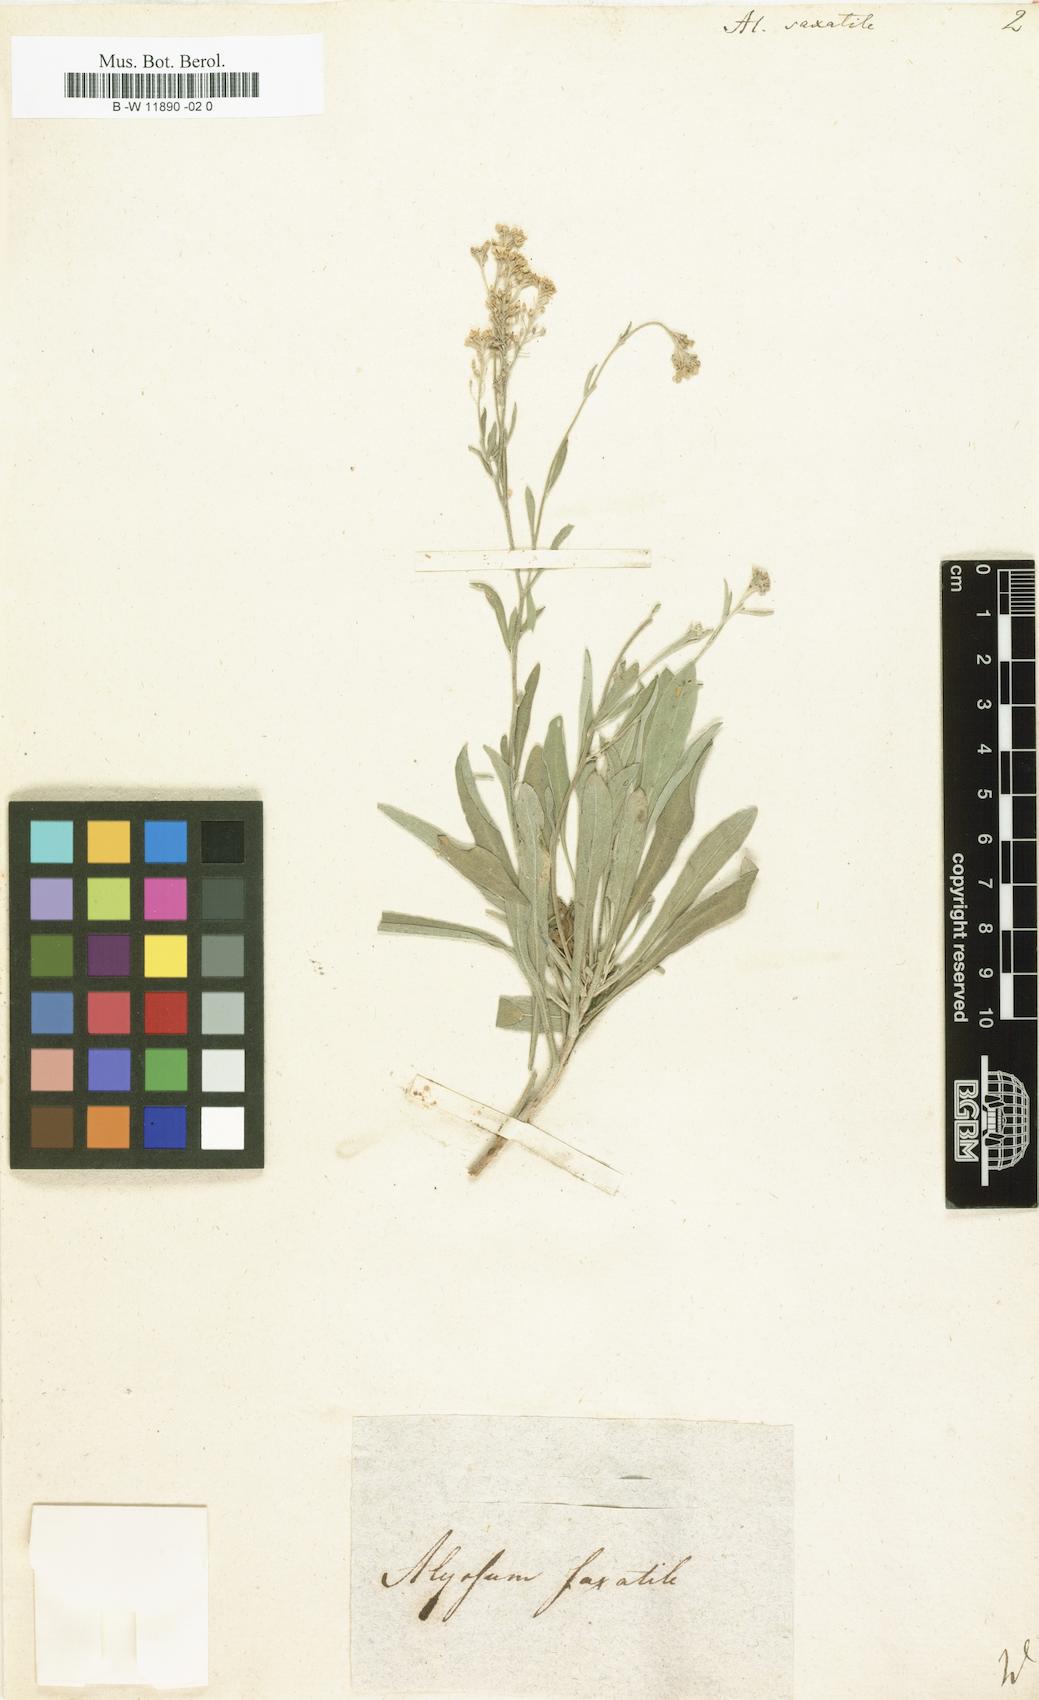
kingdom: Plantae
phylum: Tracheophyta
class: Magnoliopsida
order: Brassicales
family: Brassicaceae
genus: Aurinia
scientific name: Aurinia saxatilis
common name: Golden-tuft alyssum
